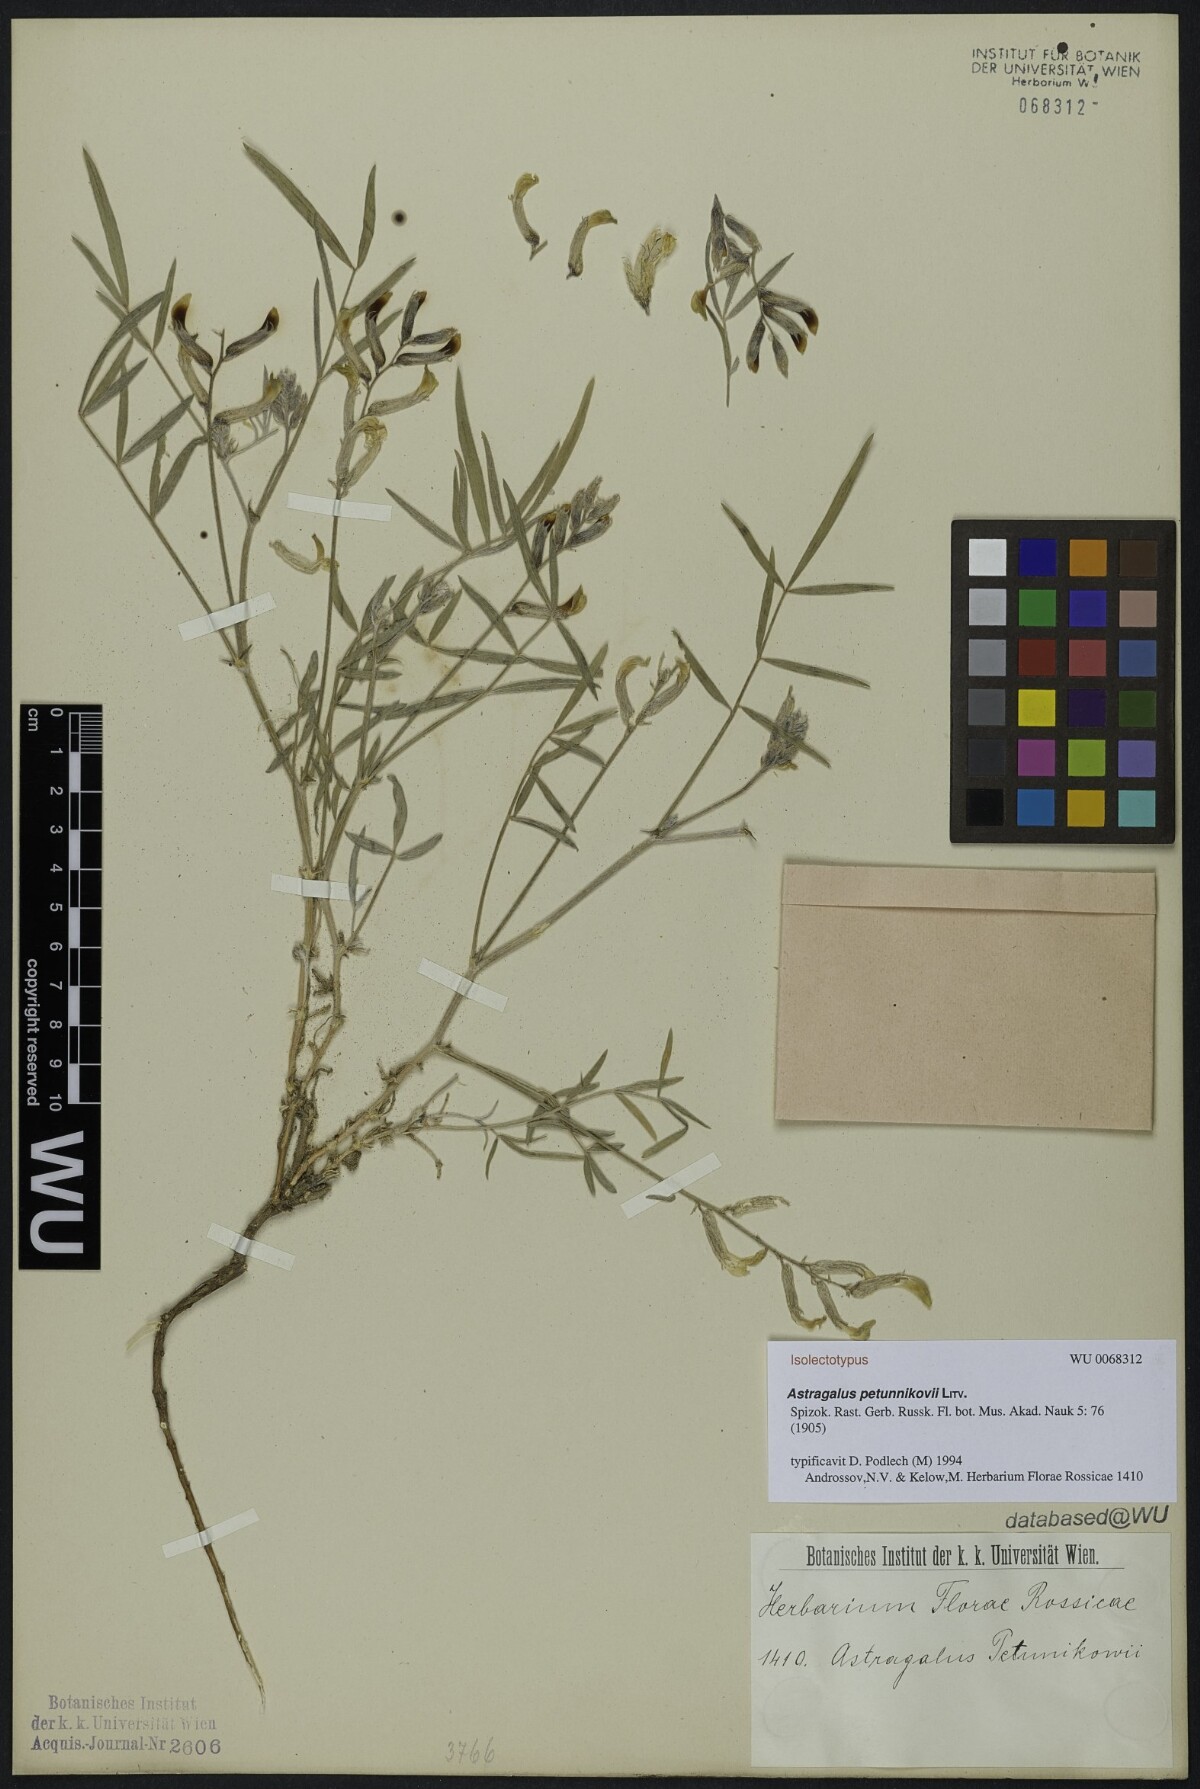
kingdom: Plantae
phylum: Tracheophyta
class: Magnoliopsida
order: Fabales
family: Fabaceae
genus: Astragalus
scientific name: Astragalus petunnikowii
